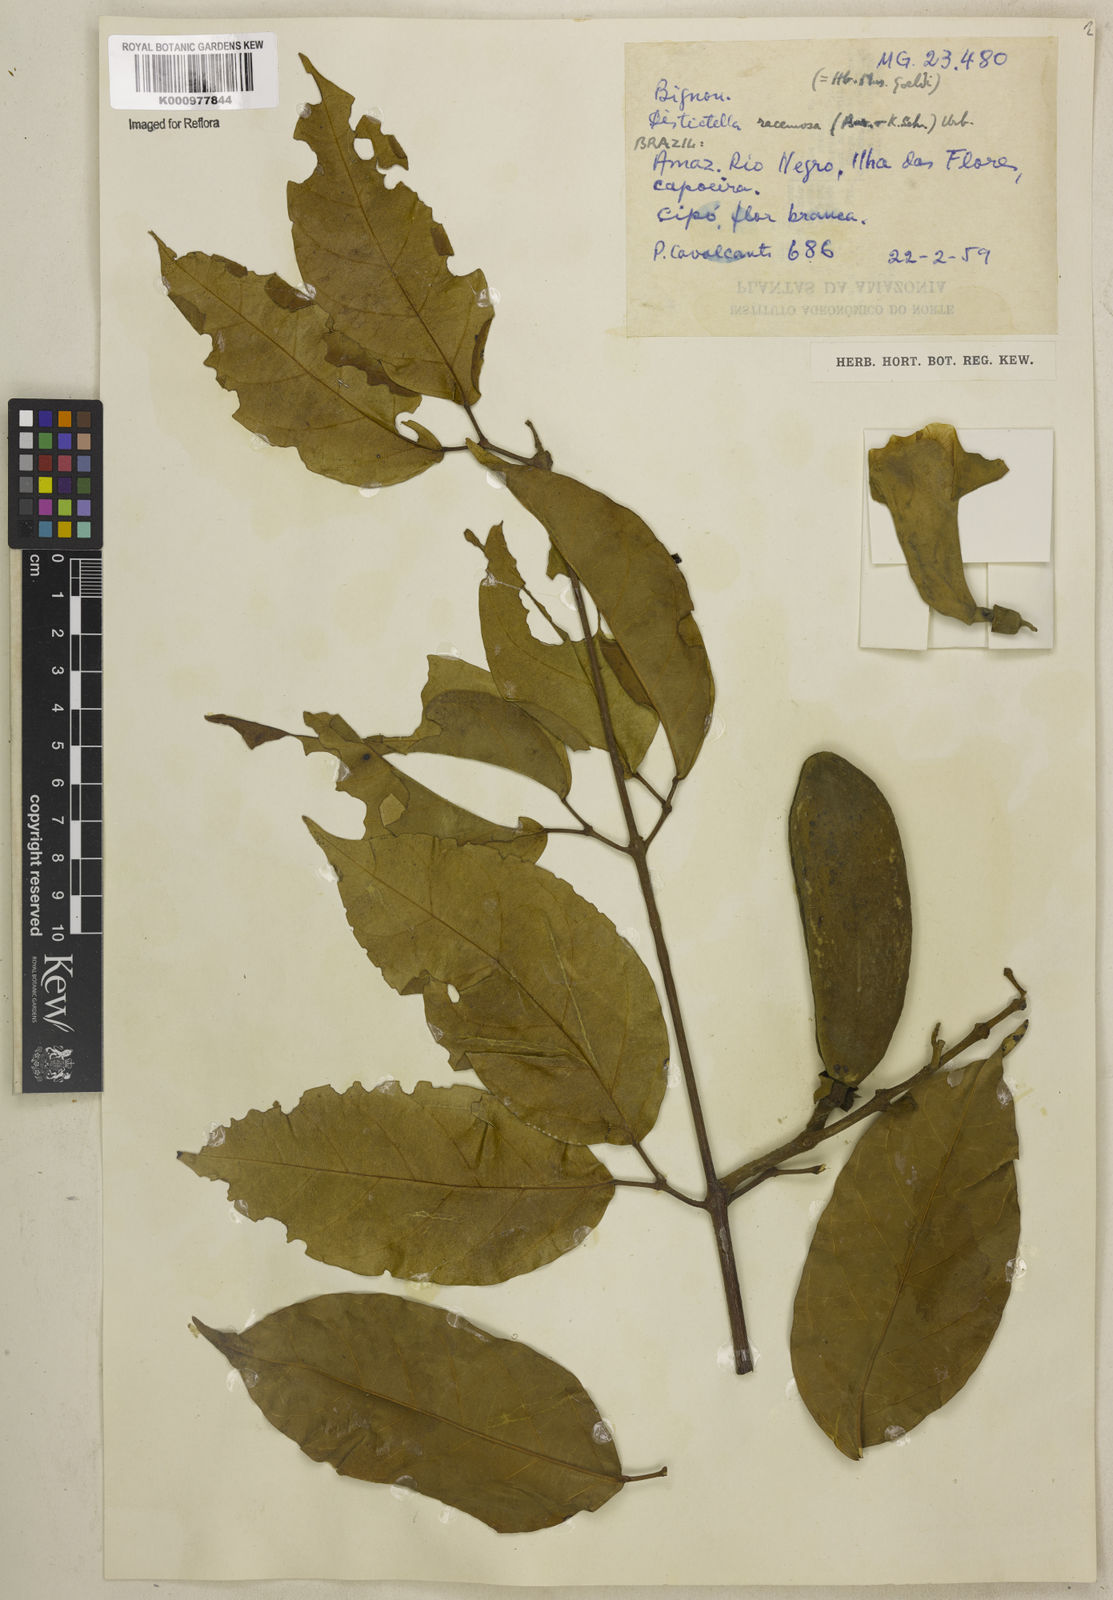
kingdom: Plantae
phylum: Tracheophyta
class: Magnoliopsida
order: Lamiales
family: Bignoniaceae
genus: Amphilophium
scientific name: Amphilophium racemosum
